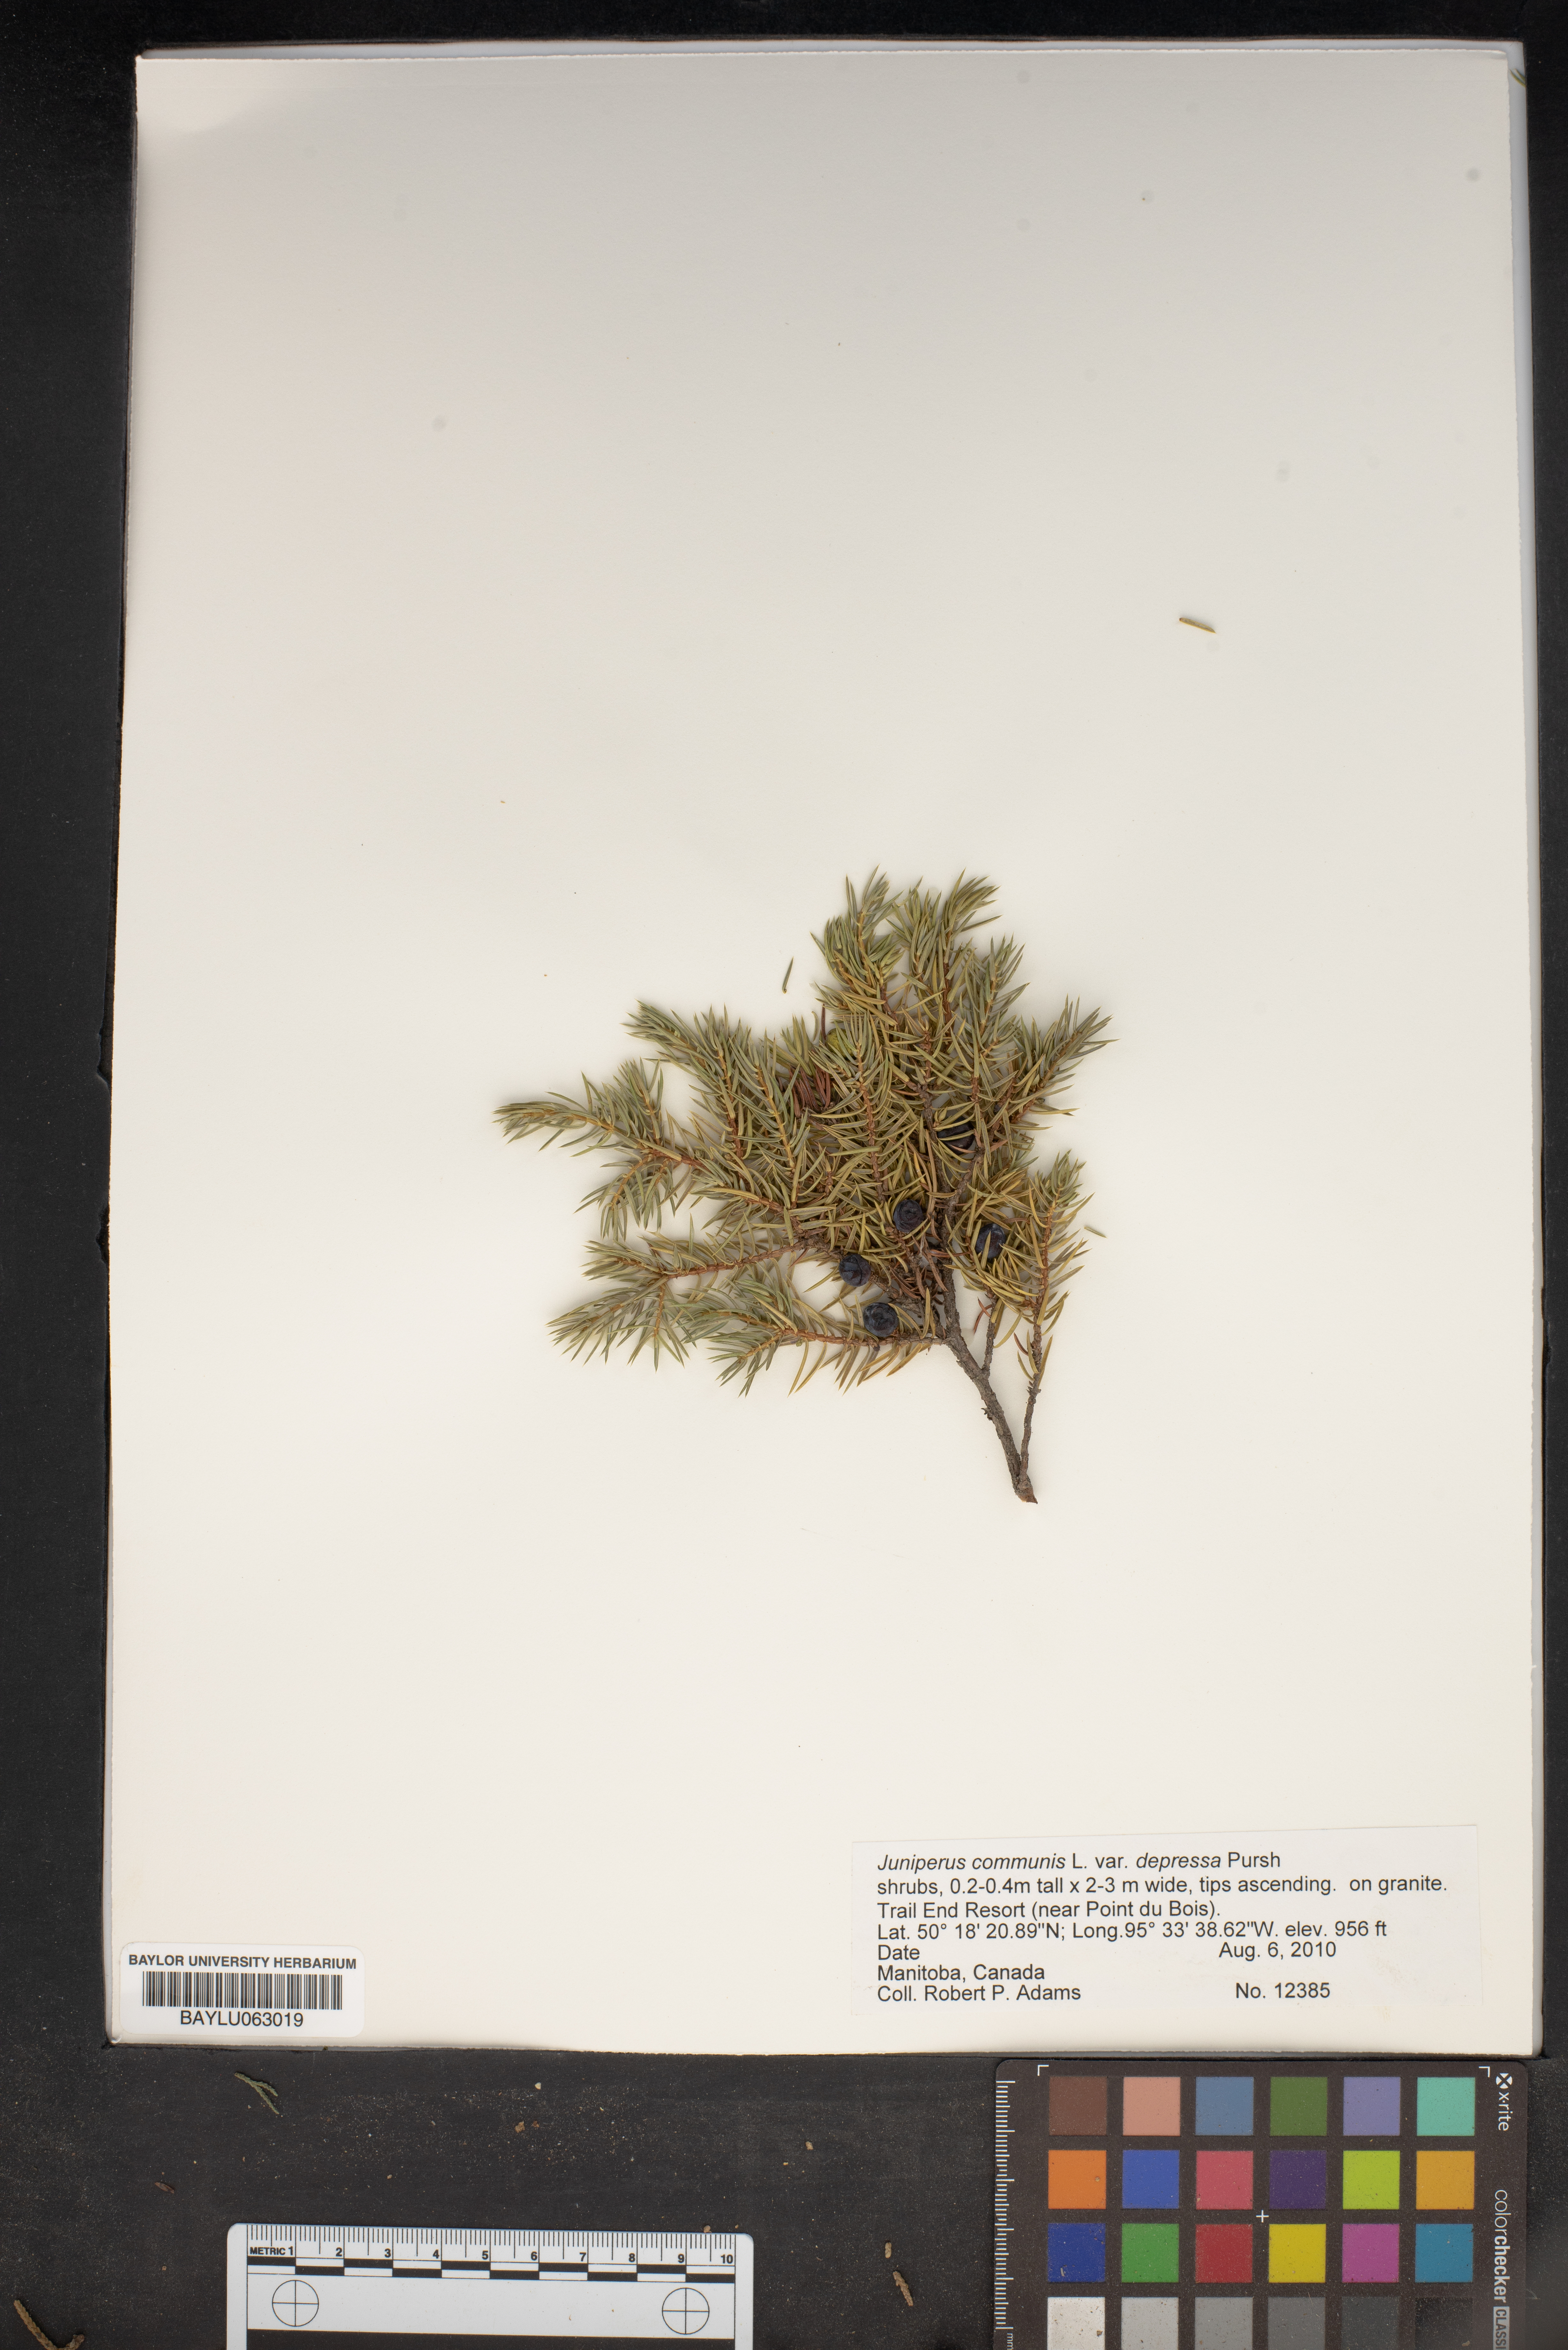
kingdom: Plantae
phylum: Tracheophyta
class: Pinopsida
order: Pinales
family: Cupressaceae
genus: Juniperus
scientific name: Juniperus communis
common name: Common juniper
